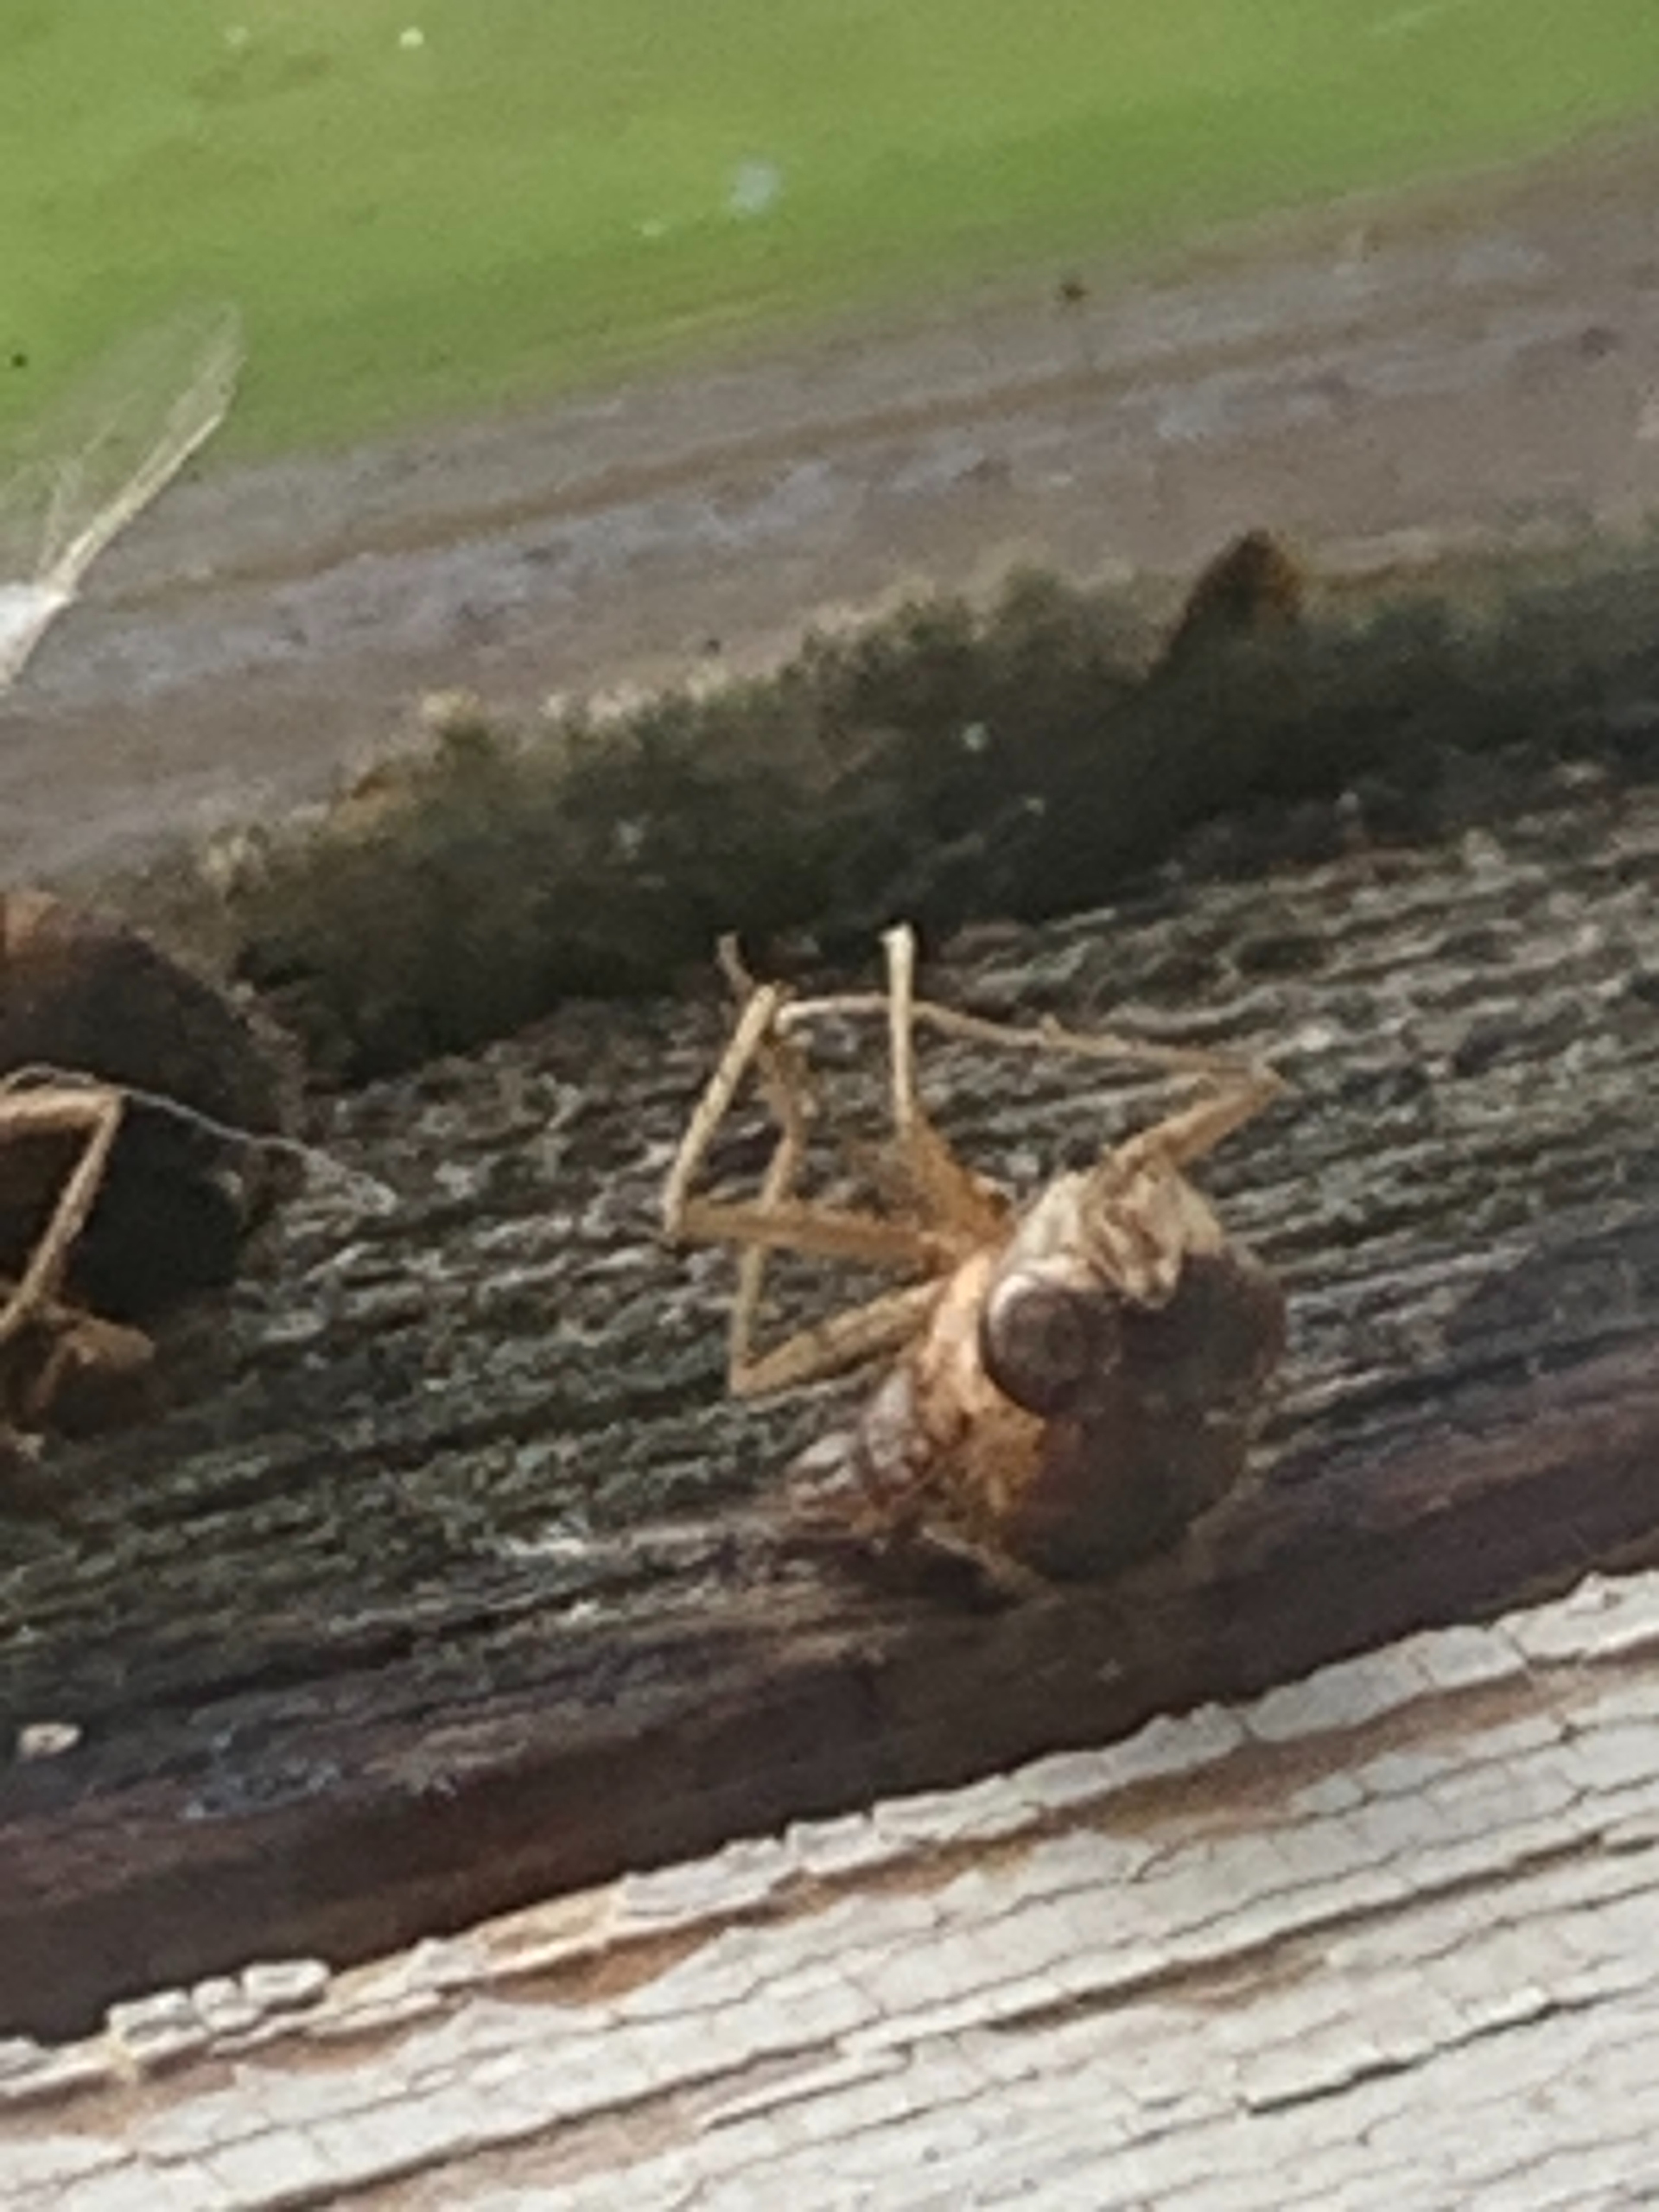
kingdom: Animalia
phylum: Arthropoda
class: Insecta
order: Diptera
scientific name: Diptera
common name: Tovinger
